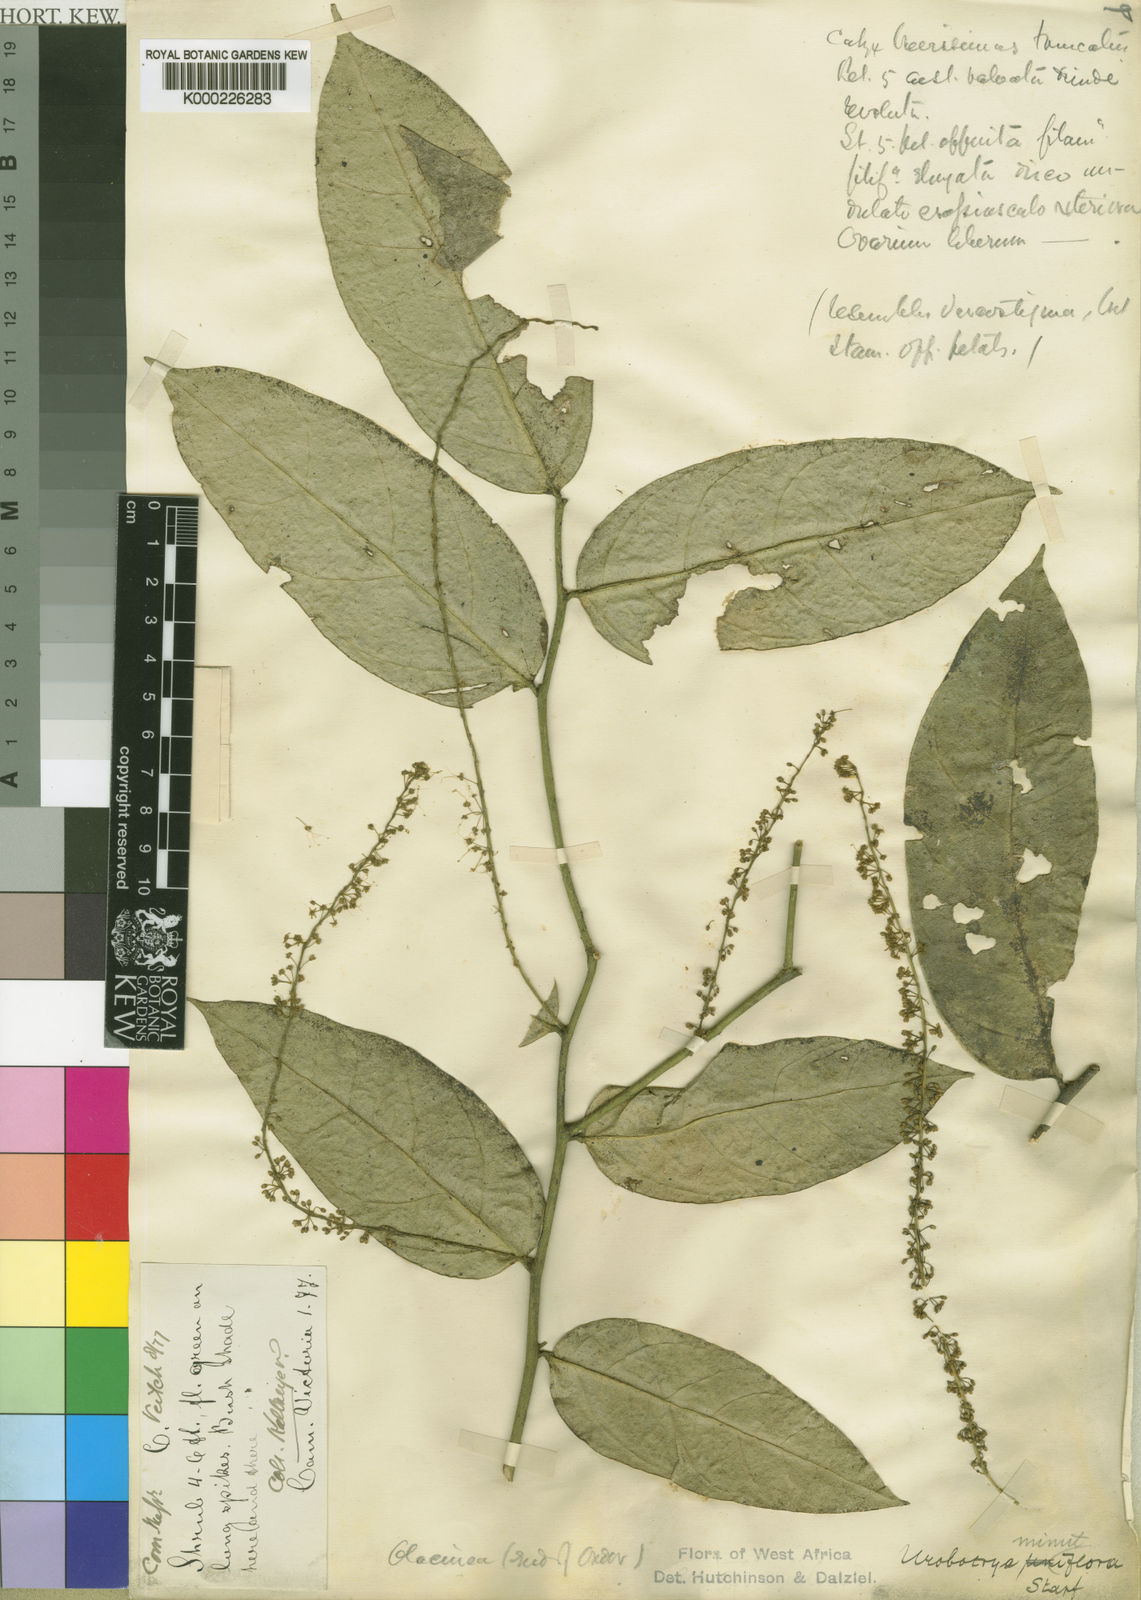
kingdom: Plantae
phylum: Tracheophyta
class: Magnoliopsida
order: Santalales
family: Opiliaceae
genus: Urobotrya
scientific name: Urobotrya congolana
